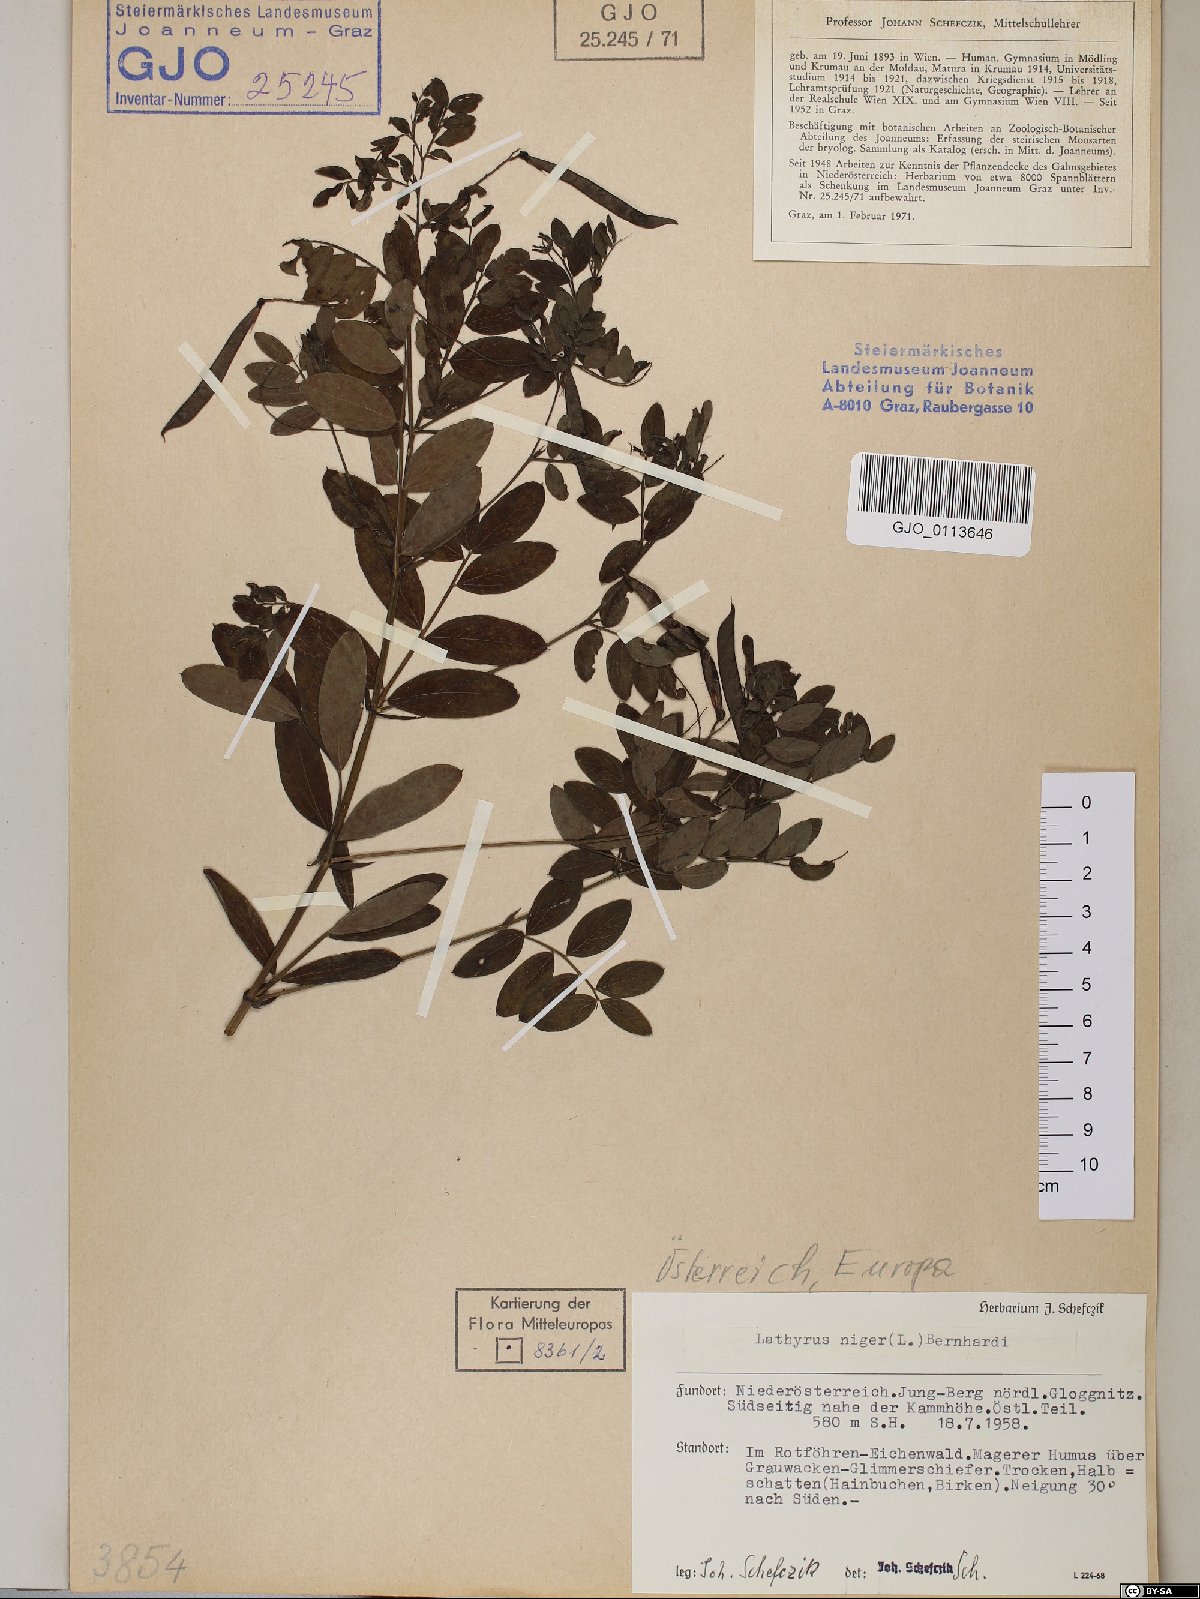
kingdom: Plantae
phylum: Tracheophyta
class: Magnoliopsida
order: Fabales
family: Fabaceae
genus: Lathyrus
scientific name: Lathyrus niger
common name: Black pea
